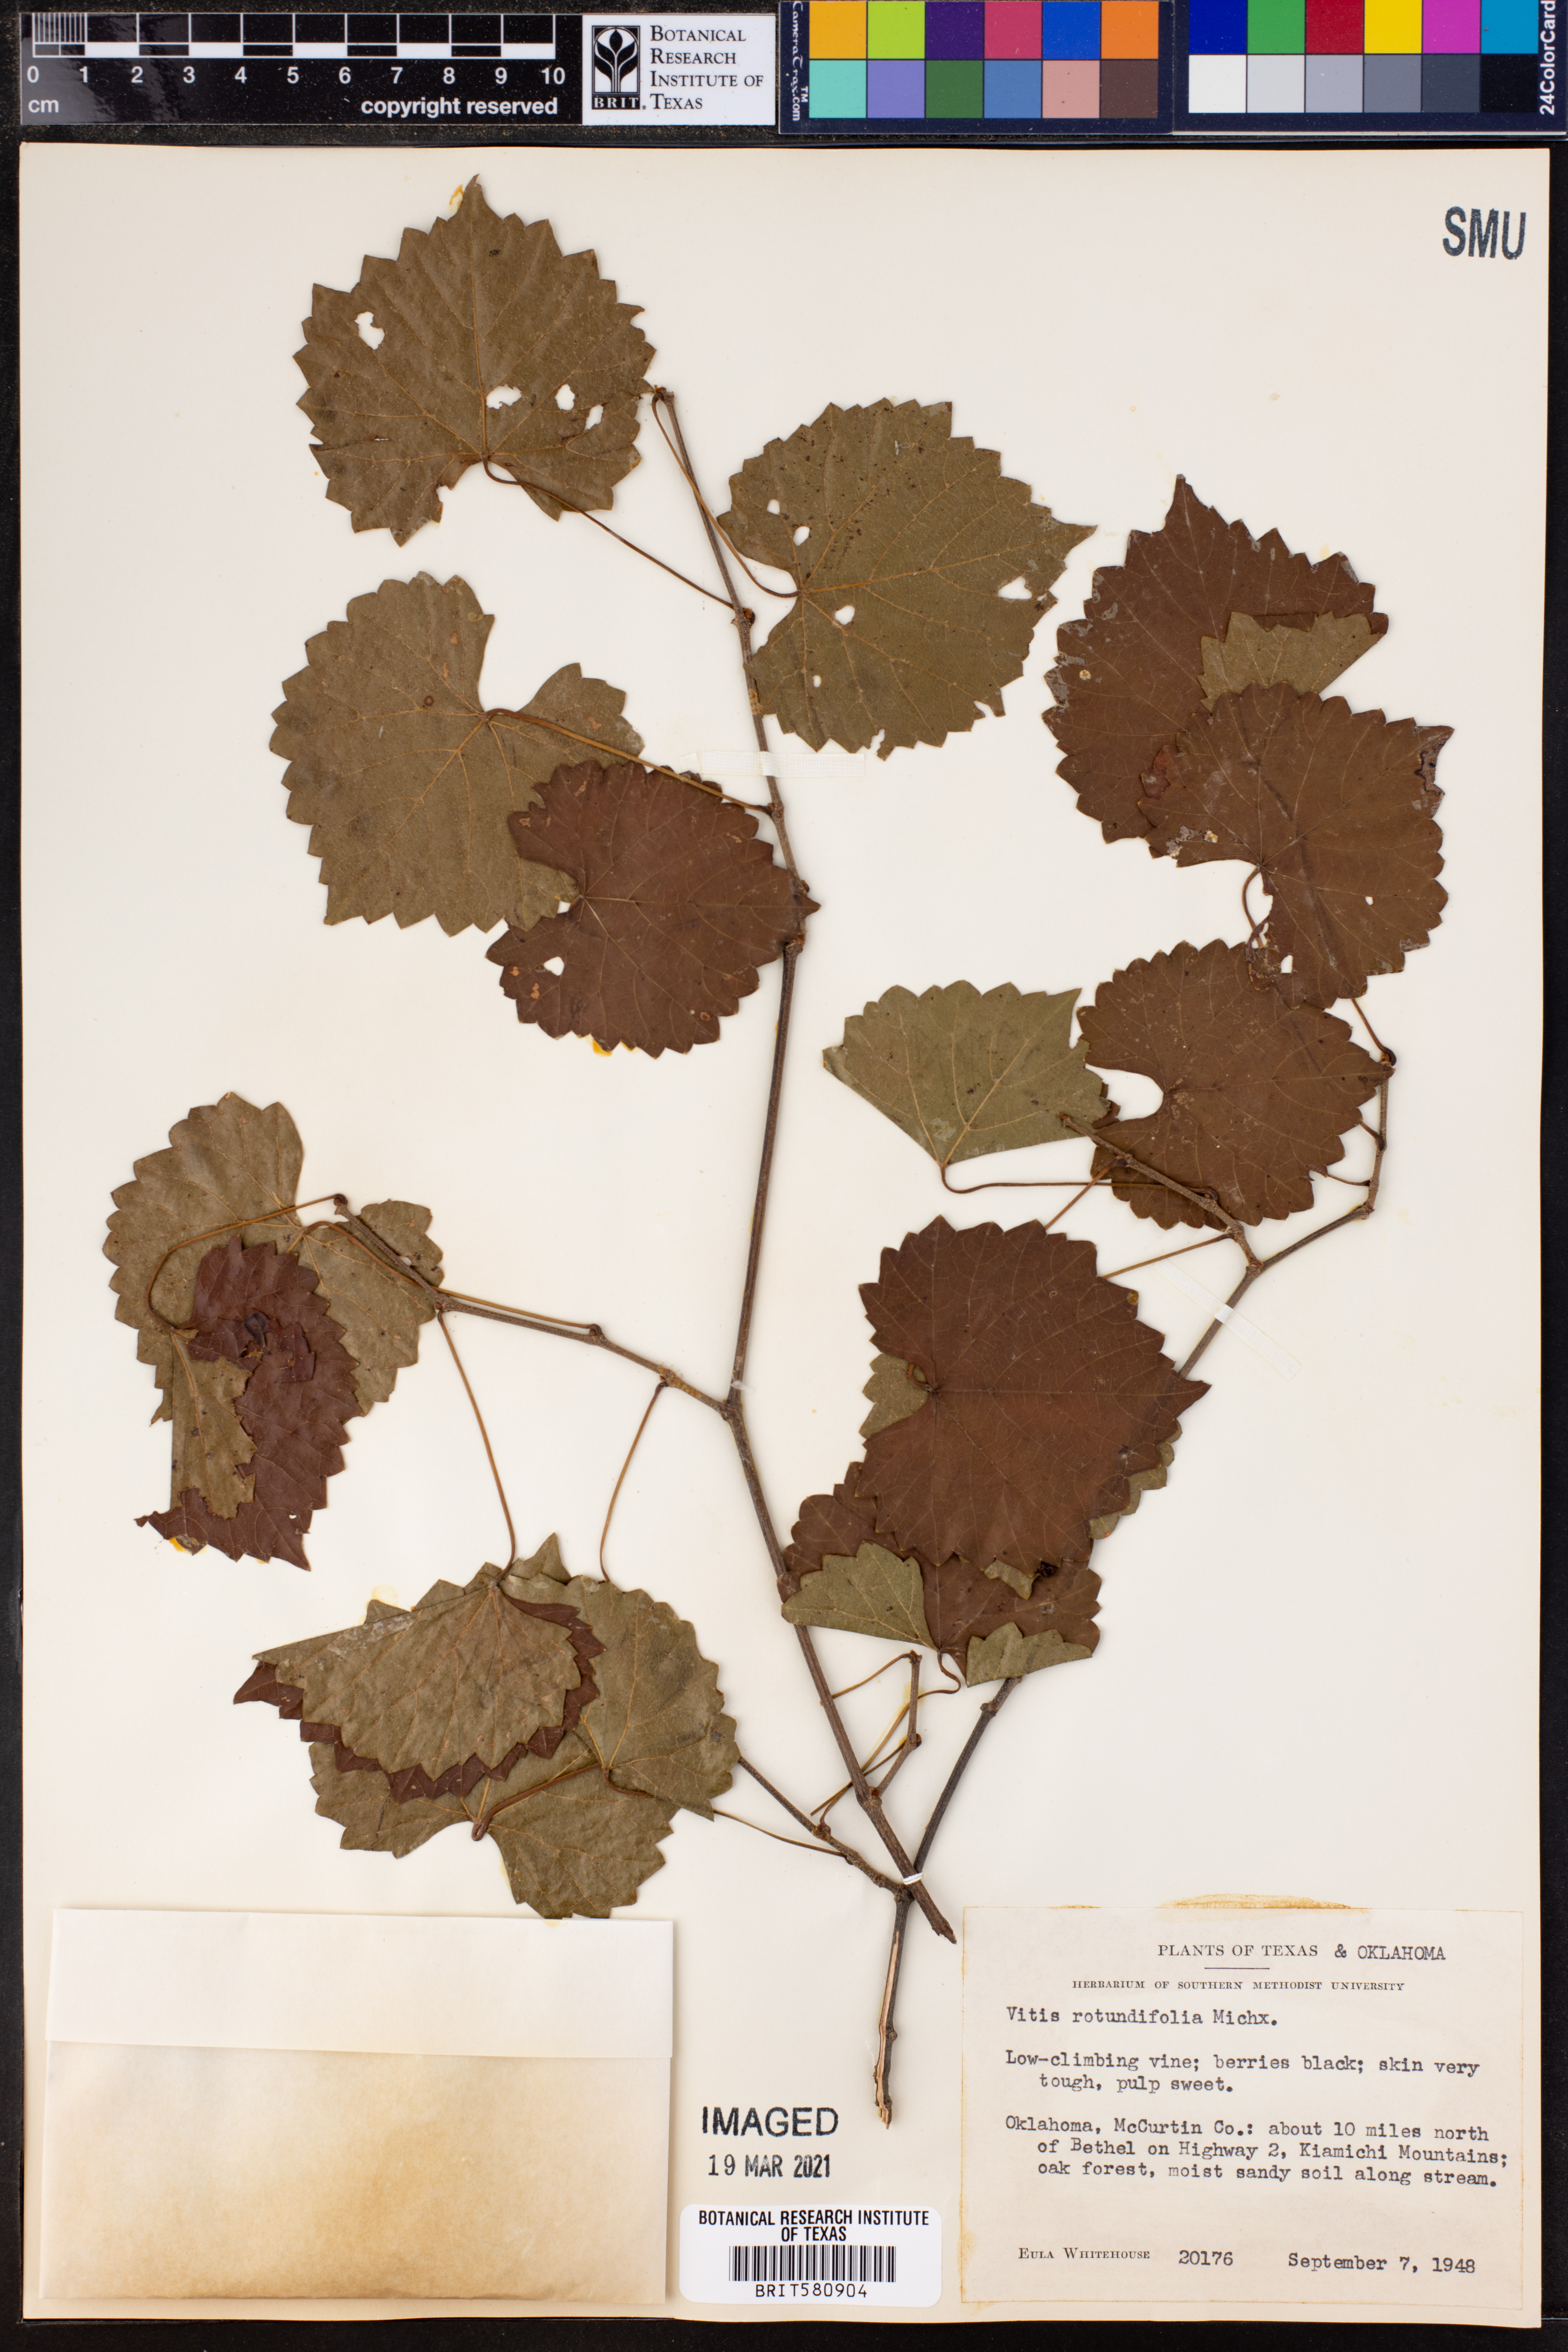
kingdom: Plantae
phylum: Tracheophyta
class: Magnoliopsida
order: Vitales
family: Vitaceae
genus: Vitis
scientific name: Vitis rotundifolia
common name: Muscadine grape
